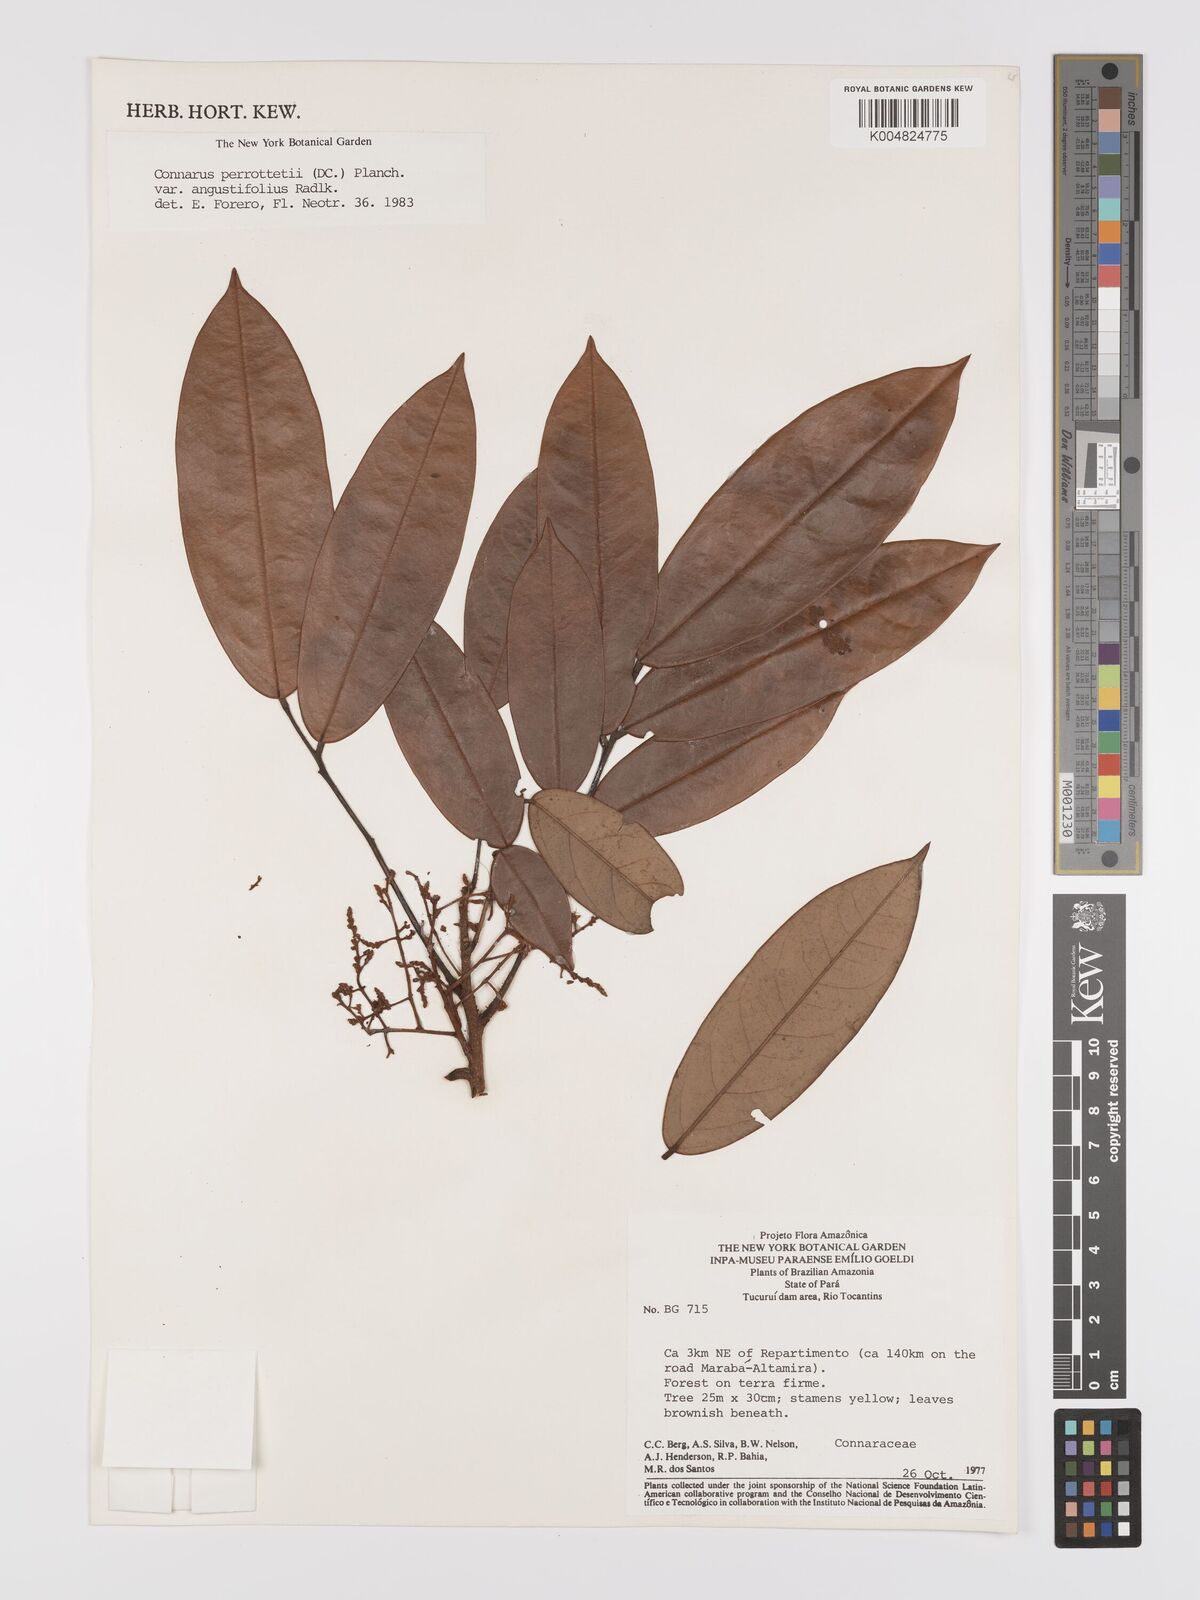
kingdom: Plantae
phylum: Tracheophyta
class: Magnoliopsida
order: Oxalidales
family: Connaraceae
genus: Connarus
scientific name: Connarus perrottetii
